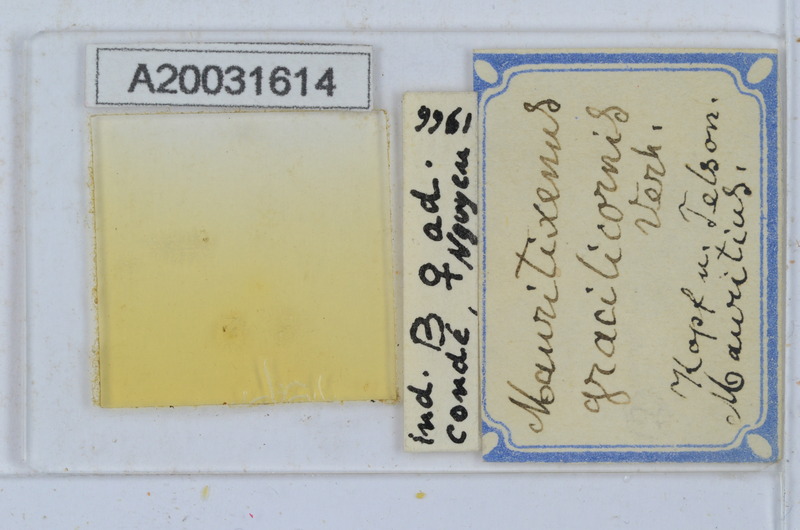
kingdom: Animalia
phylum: Arthropoda
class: Diplopoda
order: Polyxenida
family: Polyxenidae
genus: Mauritixenus
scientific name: Mauritixenus gracilicornis
